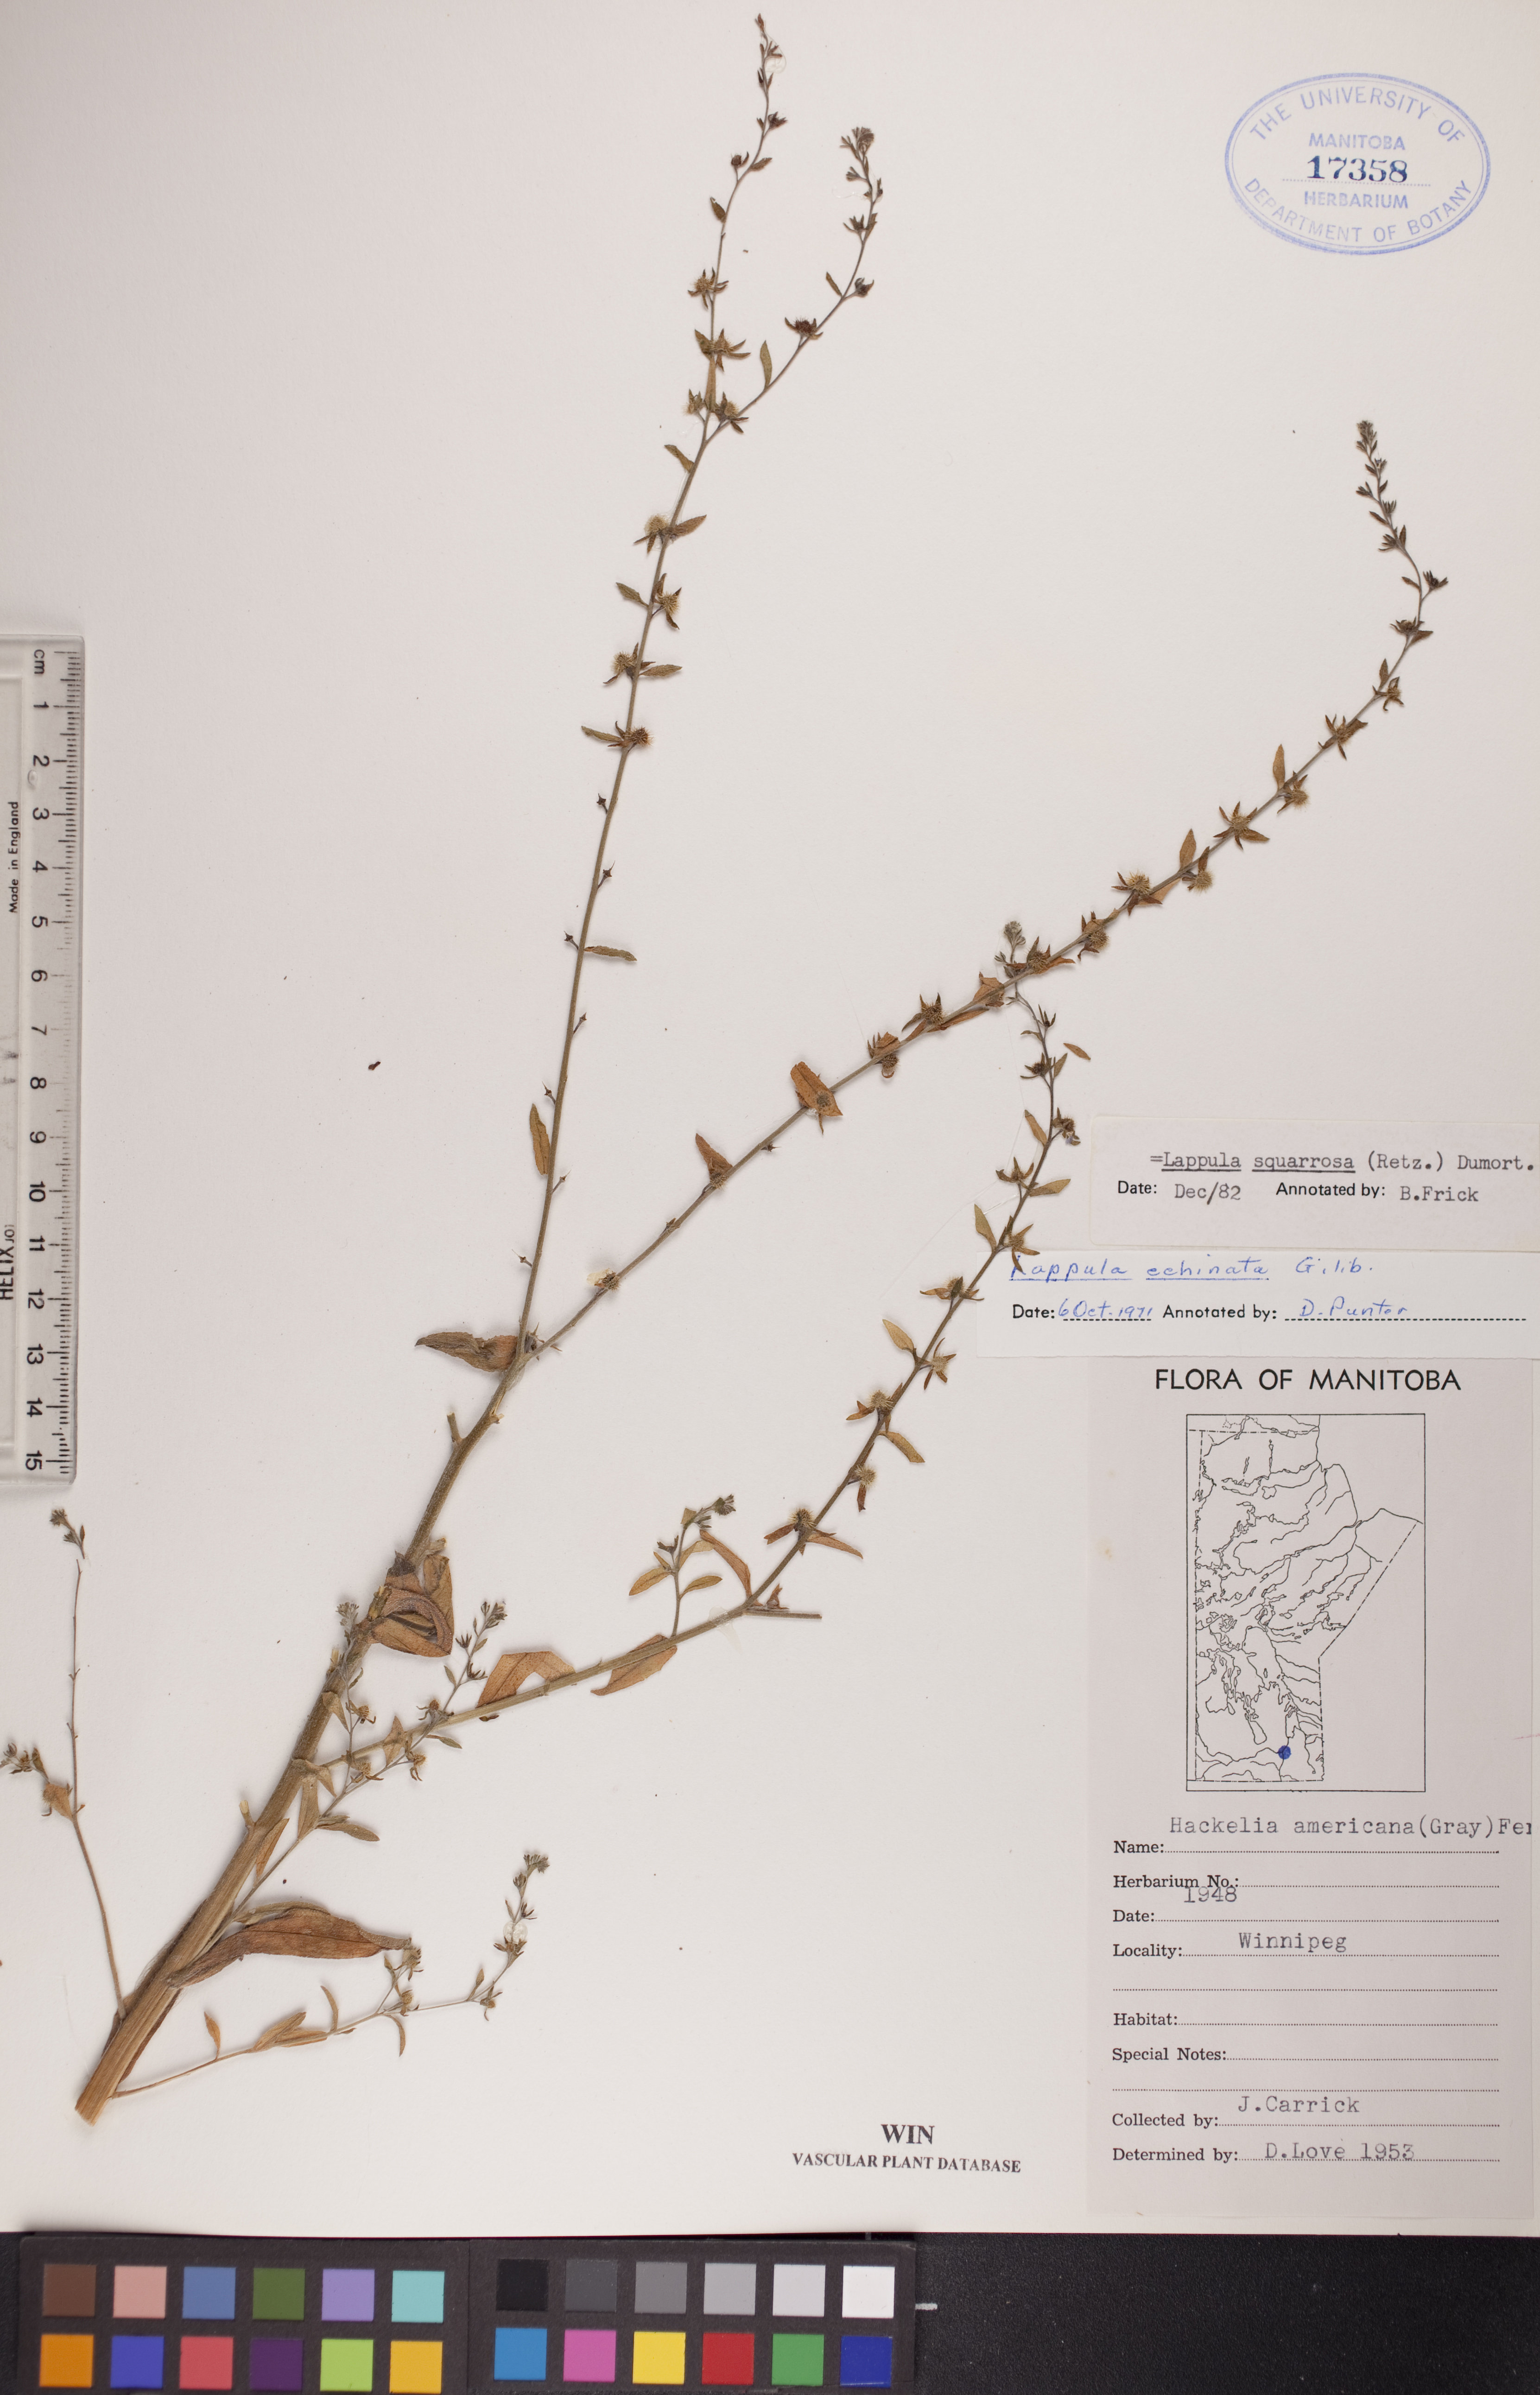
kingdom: Plantae
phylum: Tracheophyta
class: Magnoliopsida
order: Boraginales
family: Boraginaceae
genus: Lappula
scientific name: Lappula squarrosa
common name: European stickseed
